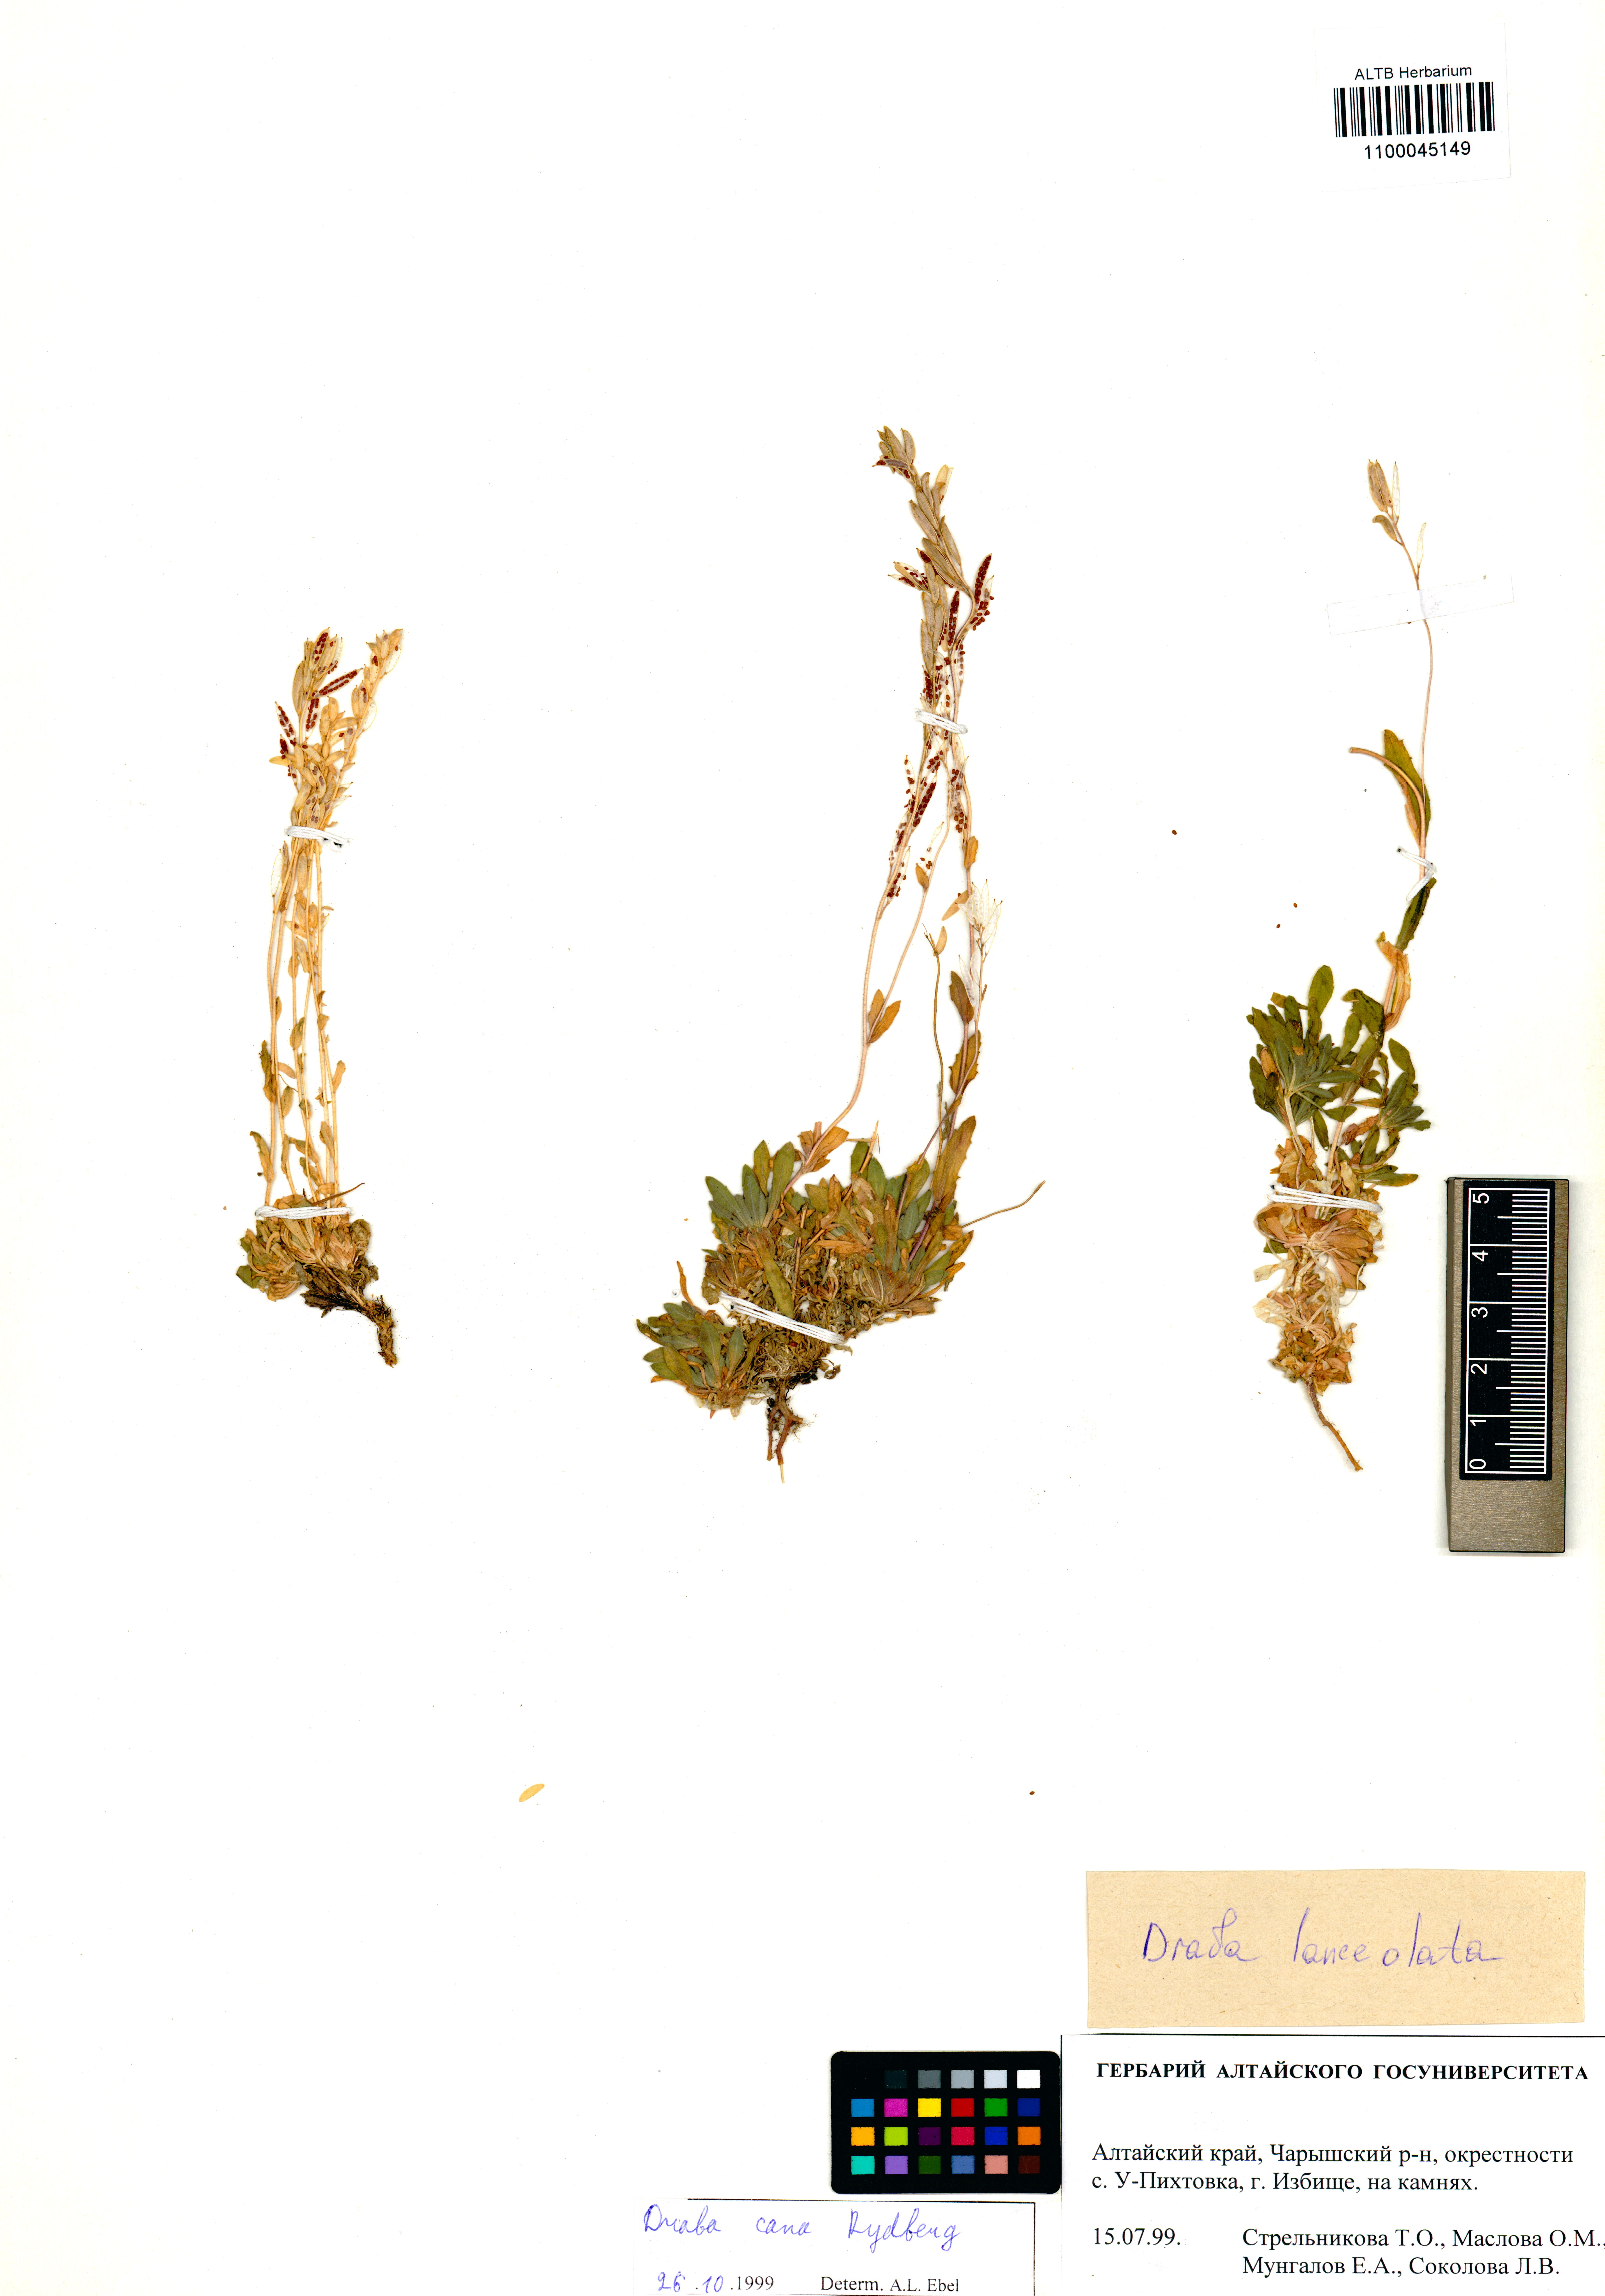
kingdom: Plantae
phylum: Tracheophyta
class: Magnoliopsida
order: Brassicales
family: Brassicaceae
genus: Draba
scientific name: Draba lanceolata
